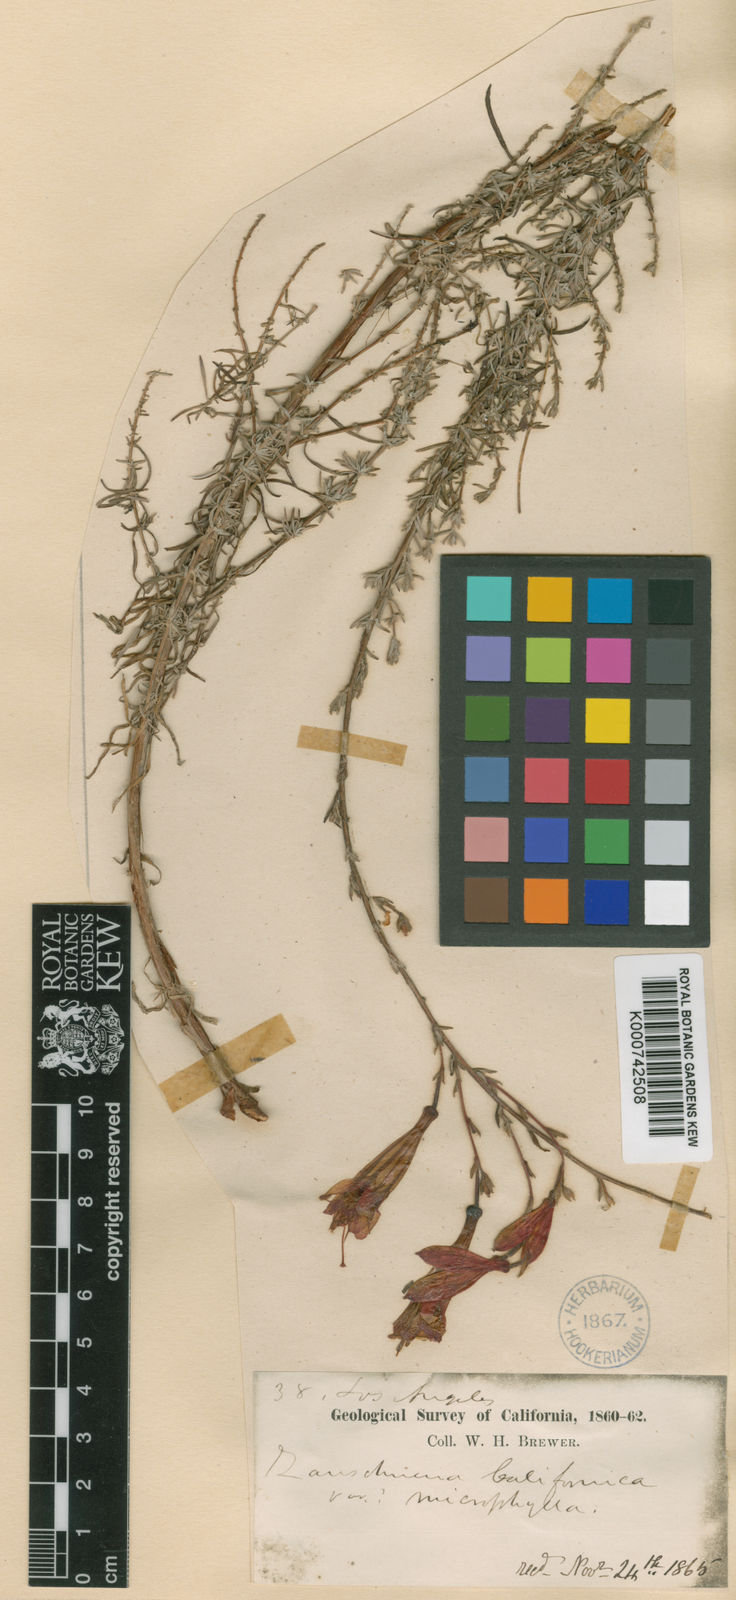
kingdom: Plantae
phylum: Tracheophyta
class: Magnoliopsida
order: Myrtales
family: Onagraceae
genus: Epilobium
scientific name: Epilobium
